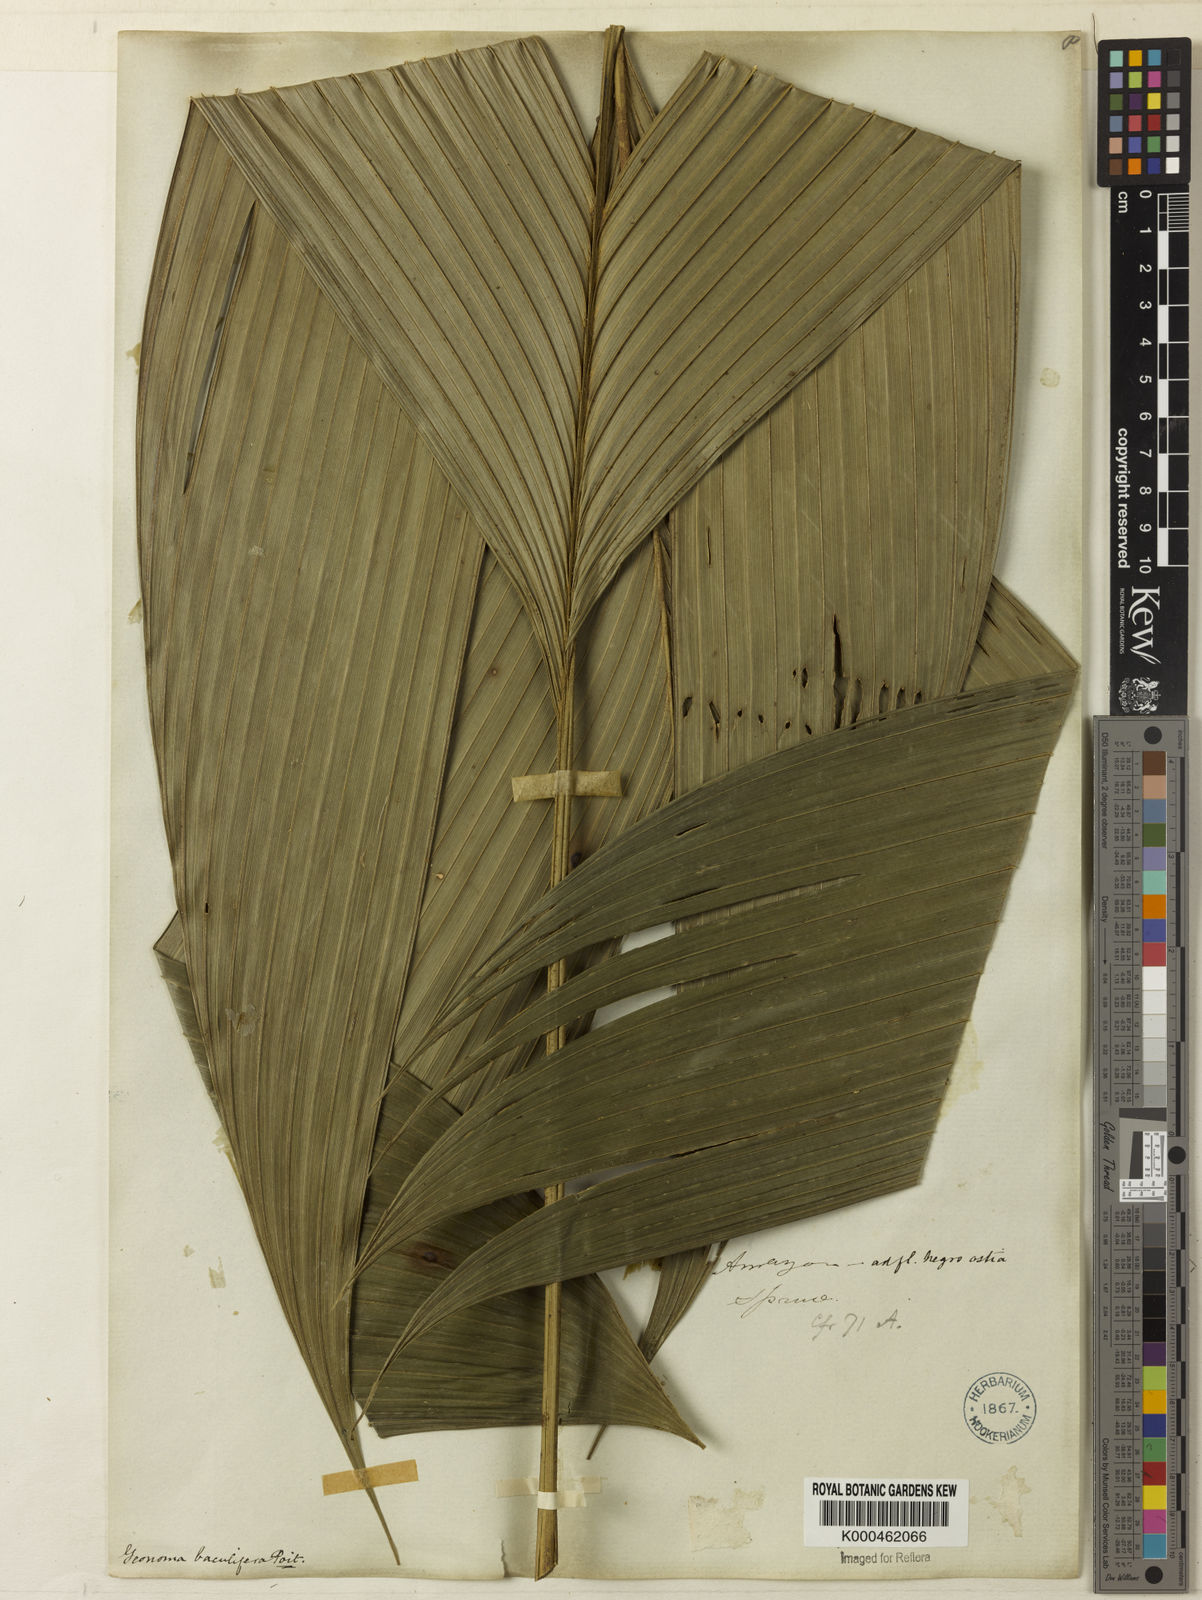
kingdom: Plantae
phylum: Tracheophyta
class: Liliopsida
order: Arecales
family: Arecaceae
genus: Geonoma
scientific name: Geonoma baculifera
